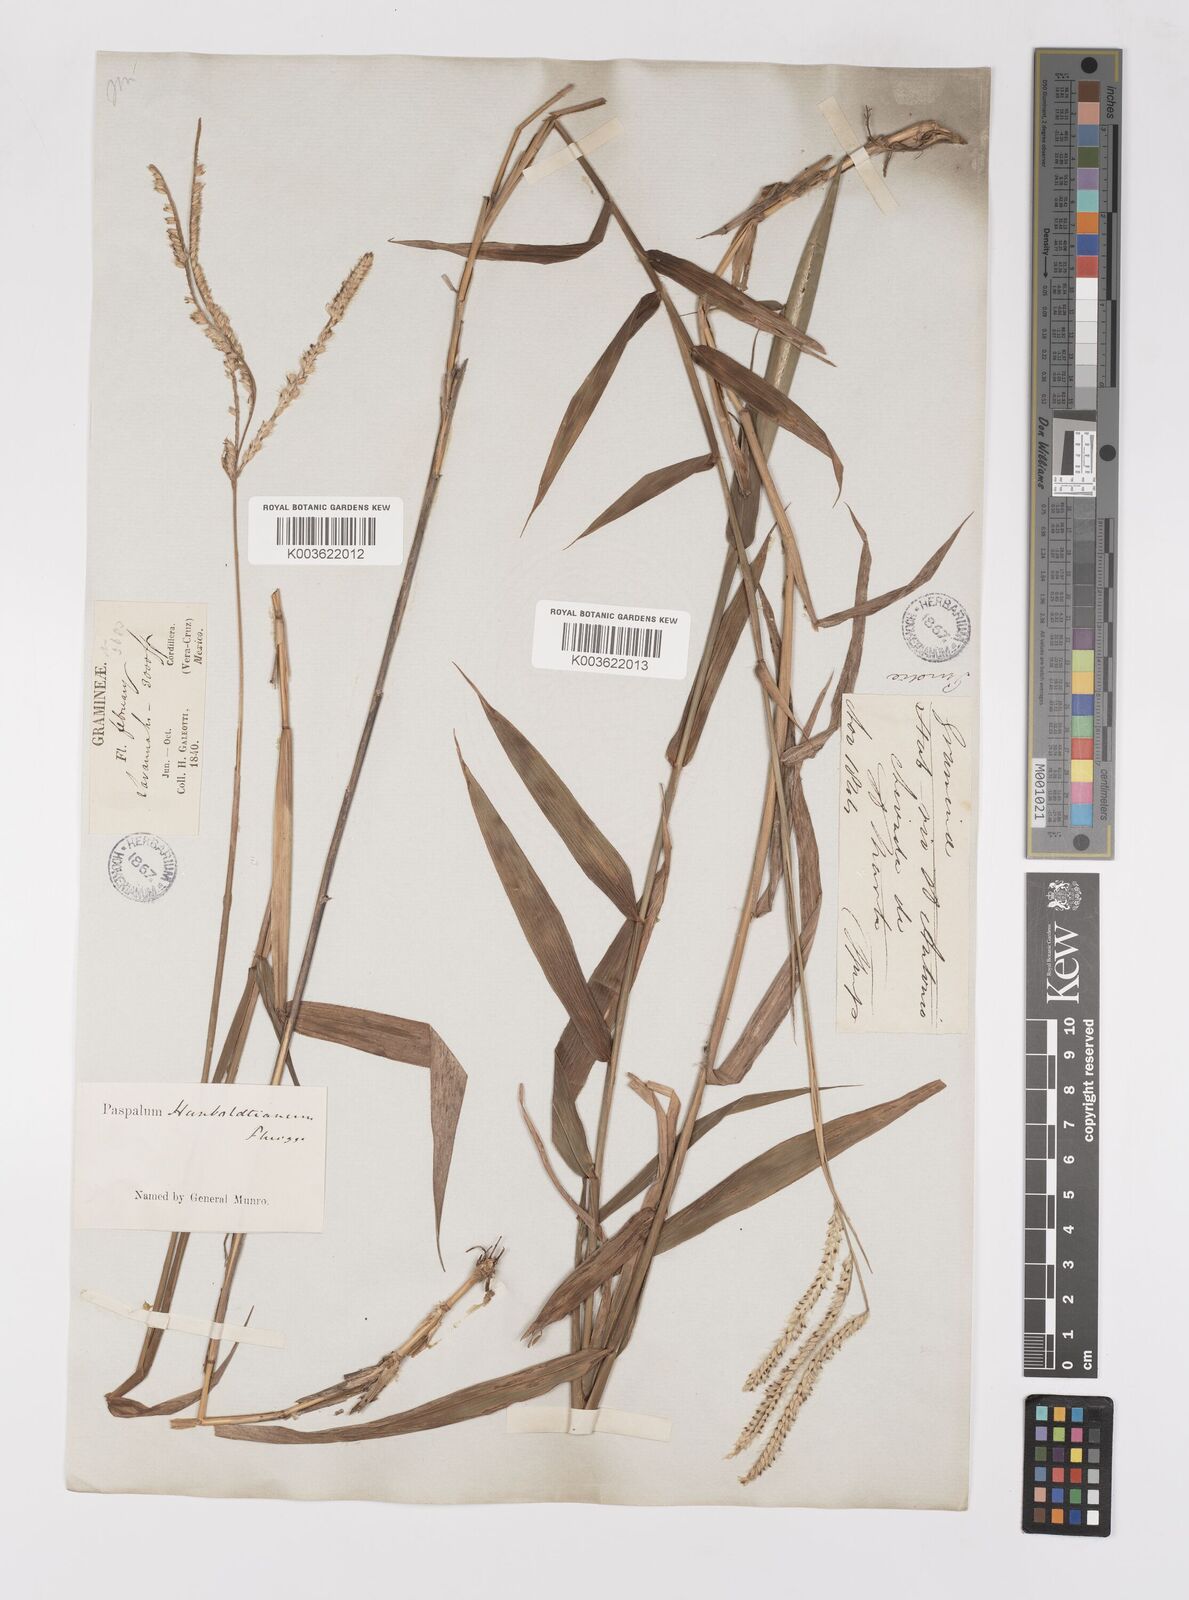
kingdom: Plantae
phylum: Tracheophyta
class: Liliopsida
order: Poales
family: Poaceae
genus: Paspalum
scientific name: Paspalum humboldtianum
